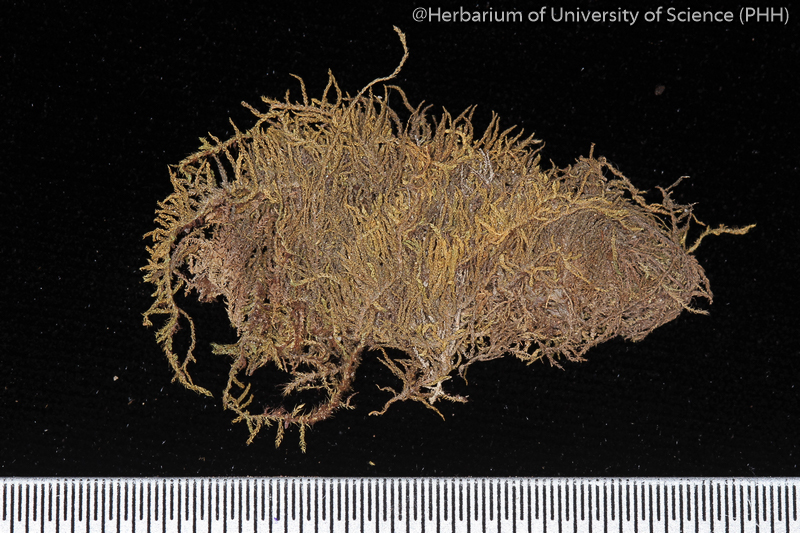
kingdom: Plantae
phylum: Bryophyta
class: Bryopsida
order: Hypnales
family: Leskeaceae
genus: Haplocladium
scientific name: Haplocladium microphyllum
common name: Tiny-leaved haplocladium
